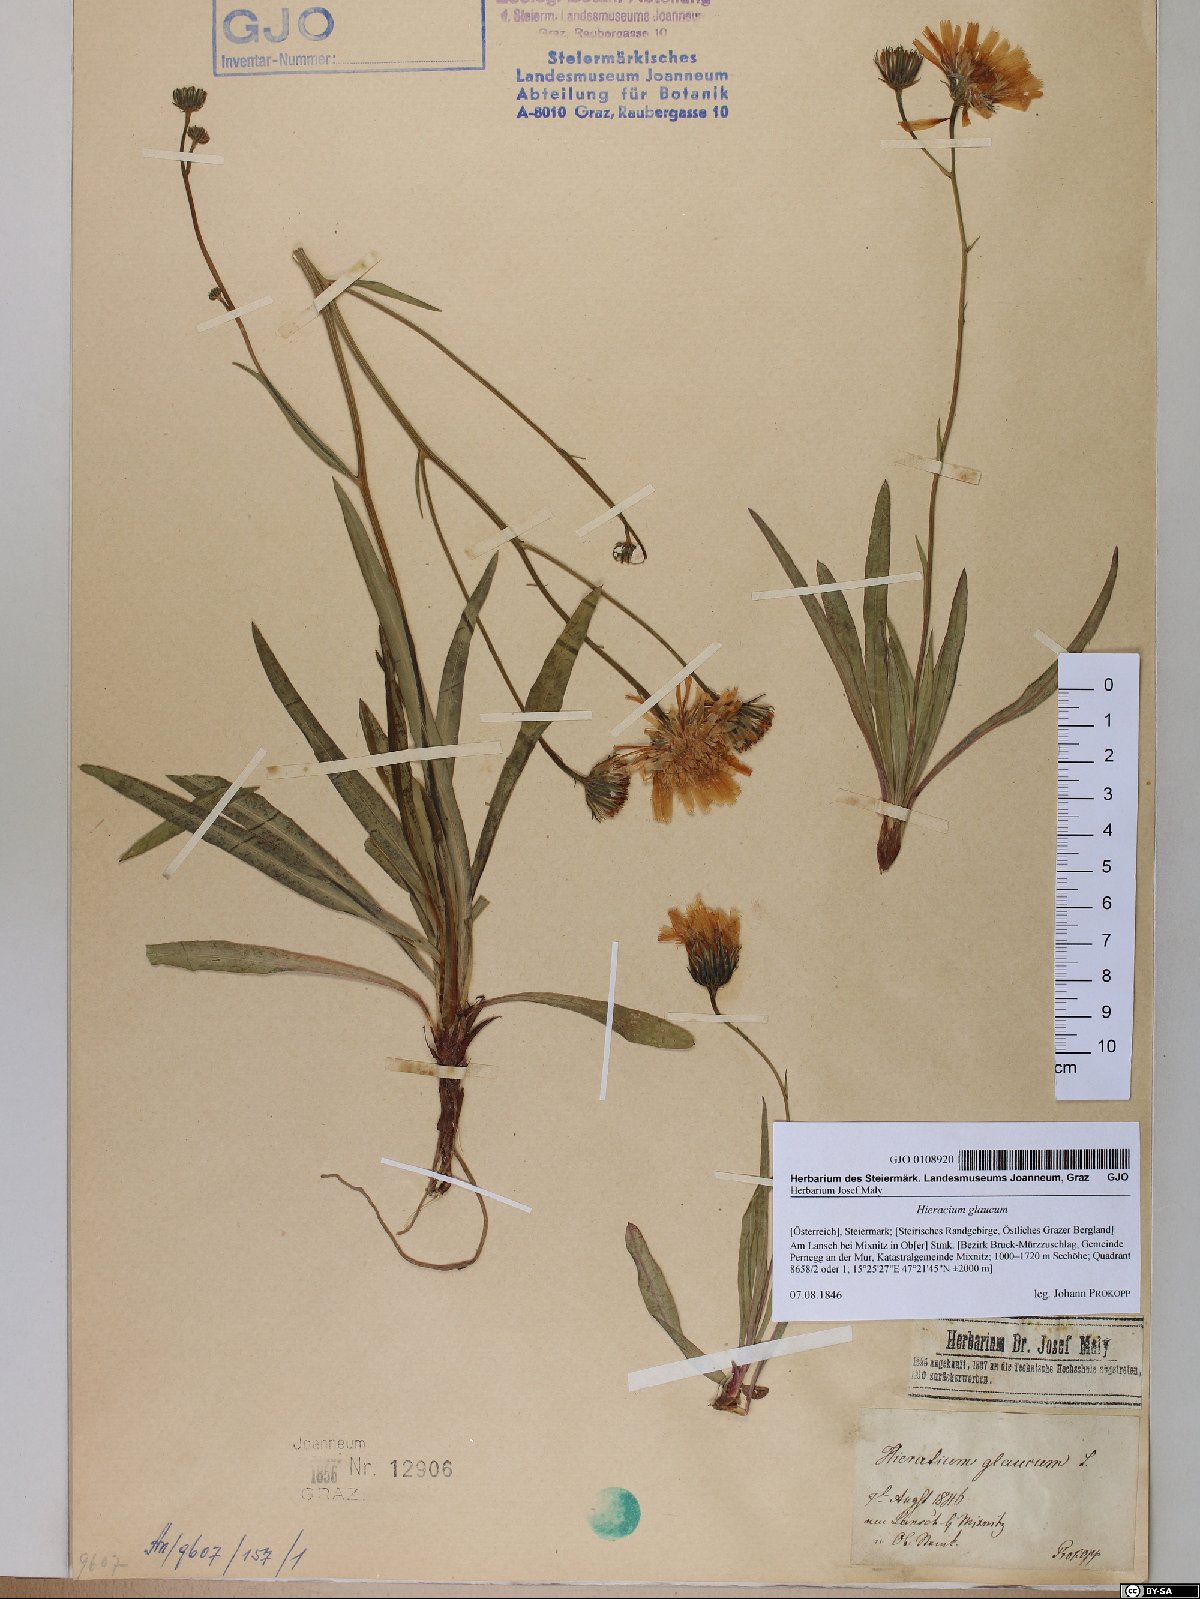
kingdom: Plantae
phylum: Tracheophyta
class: Magnoliopsida
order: Asterales
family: Asteraceae
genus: Hieracium
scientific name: Hieracium glaucum
